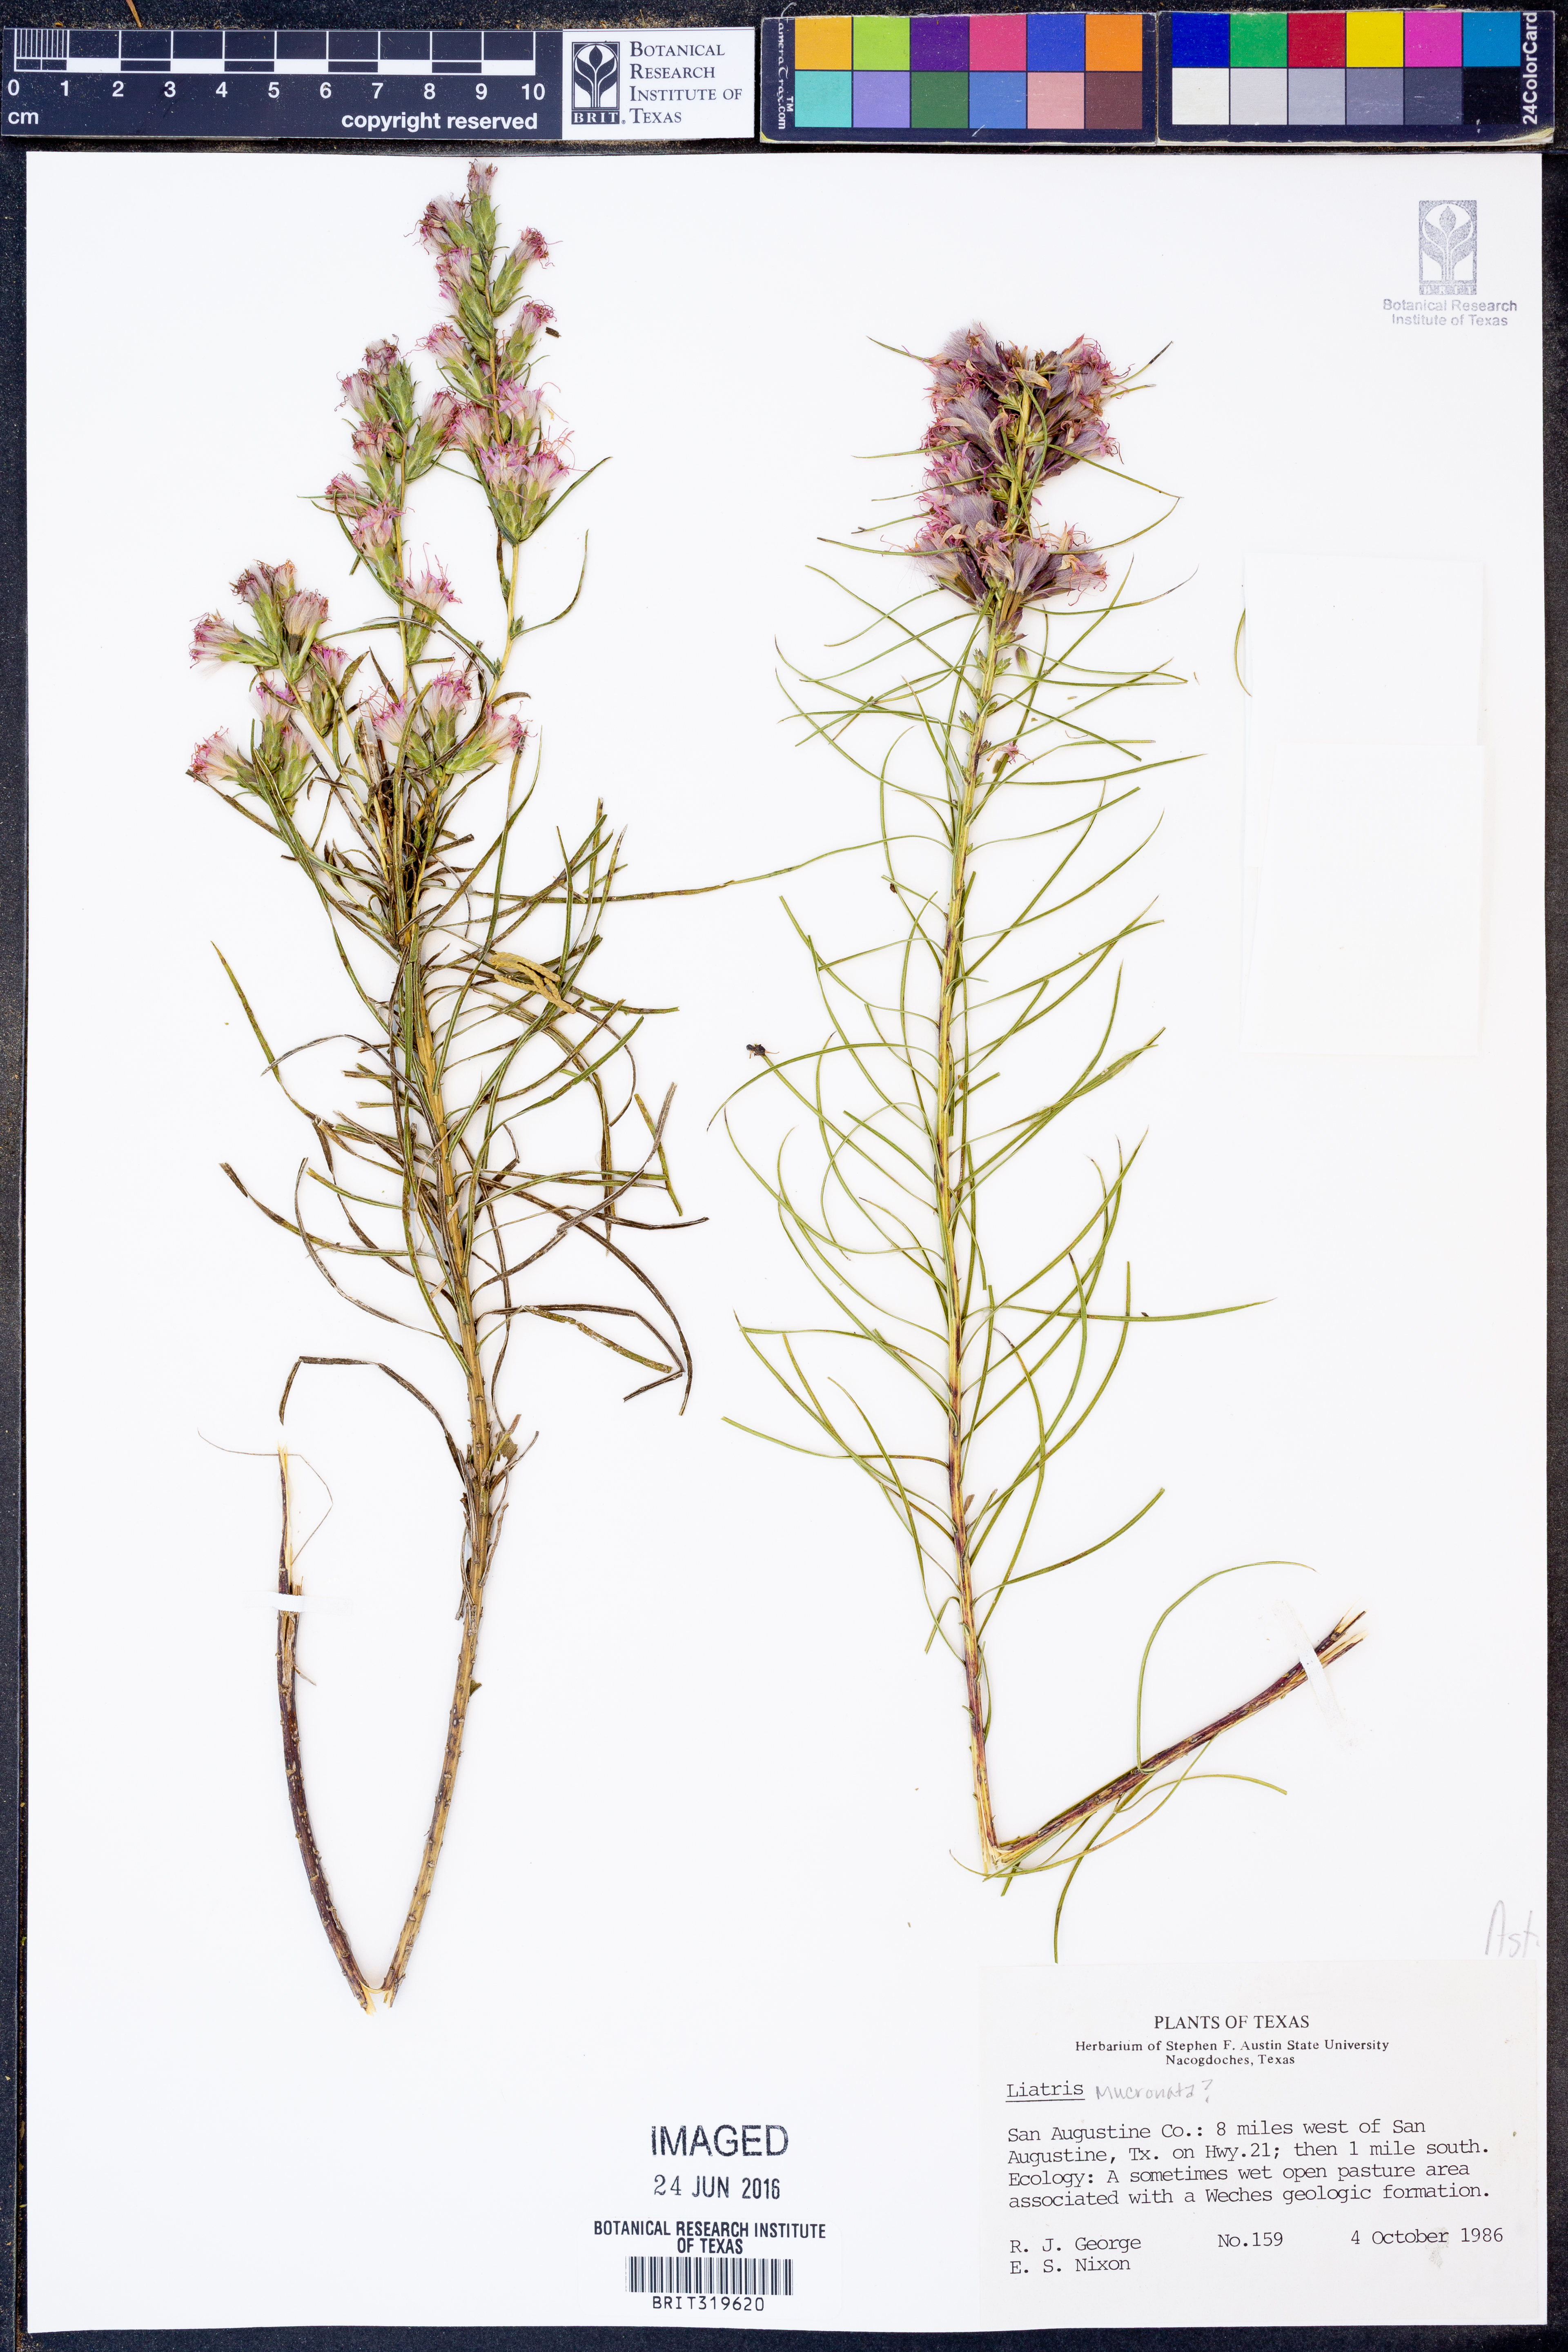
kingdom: Plantae
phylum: Tracheophyta
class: Magnoliopsida
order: Asterales
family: Asteraceae
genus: Liatris
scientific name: Liatris mucronata
